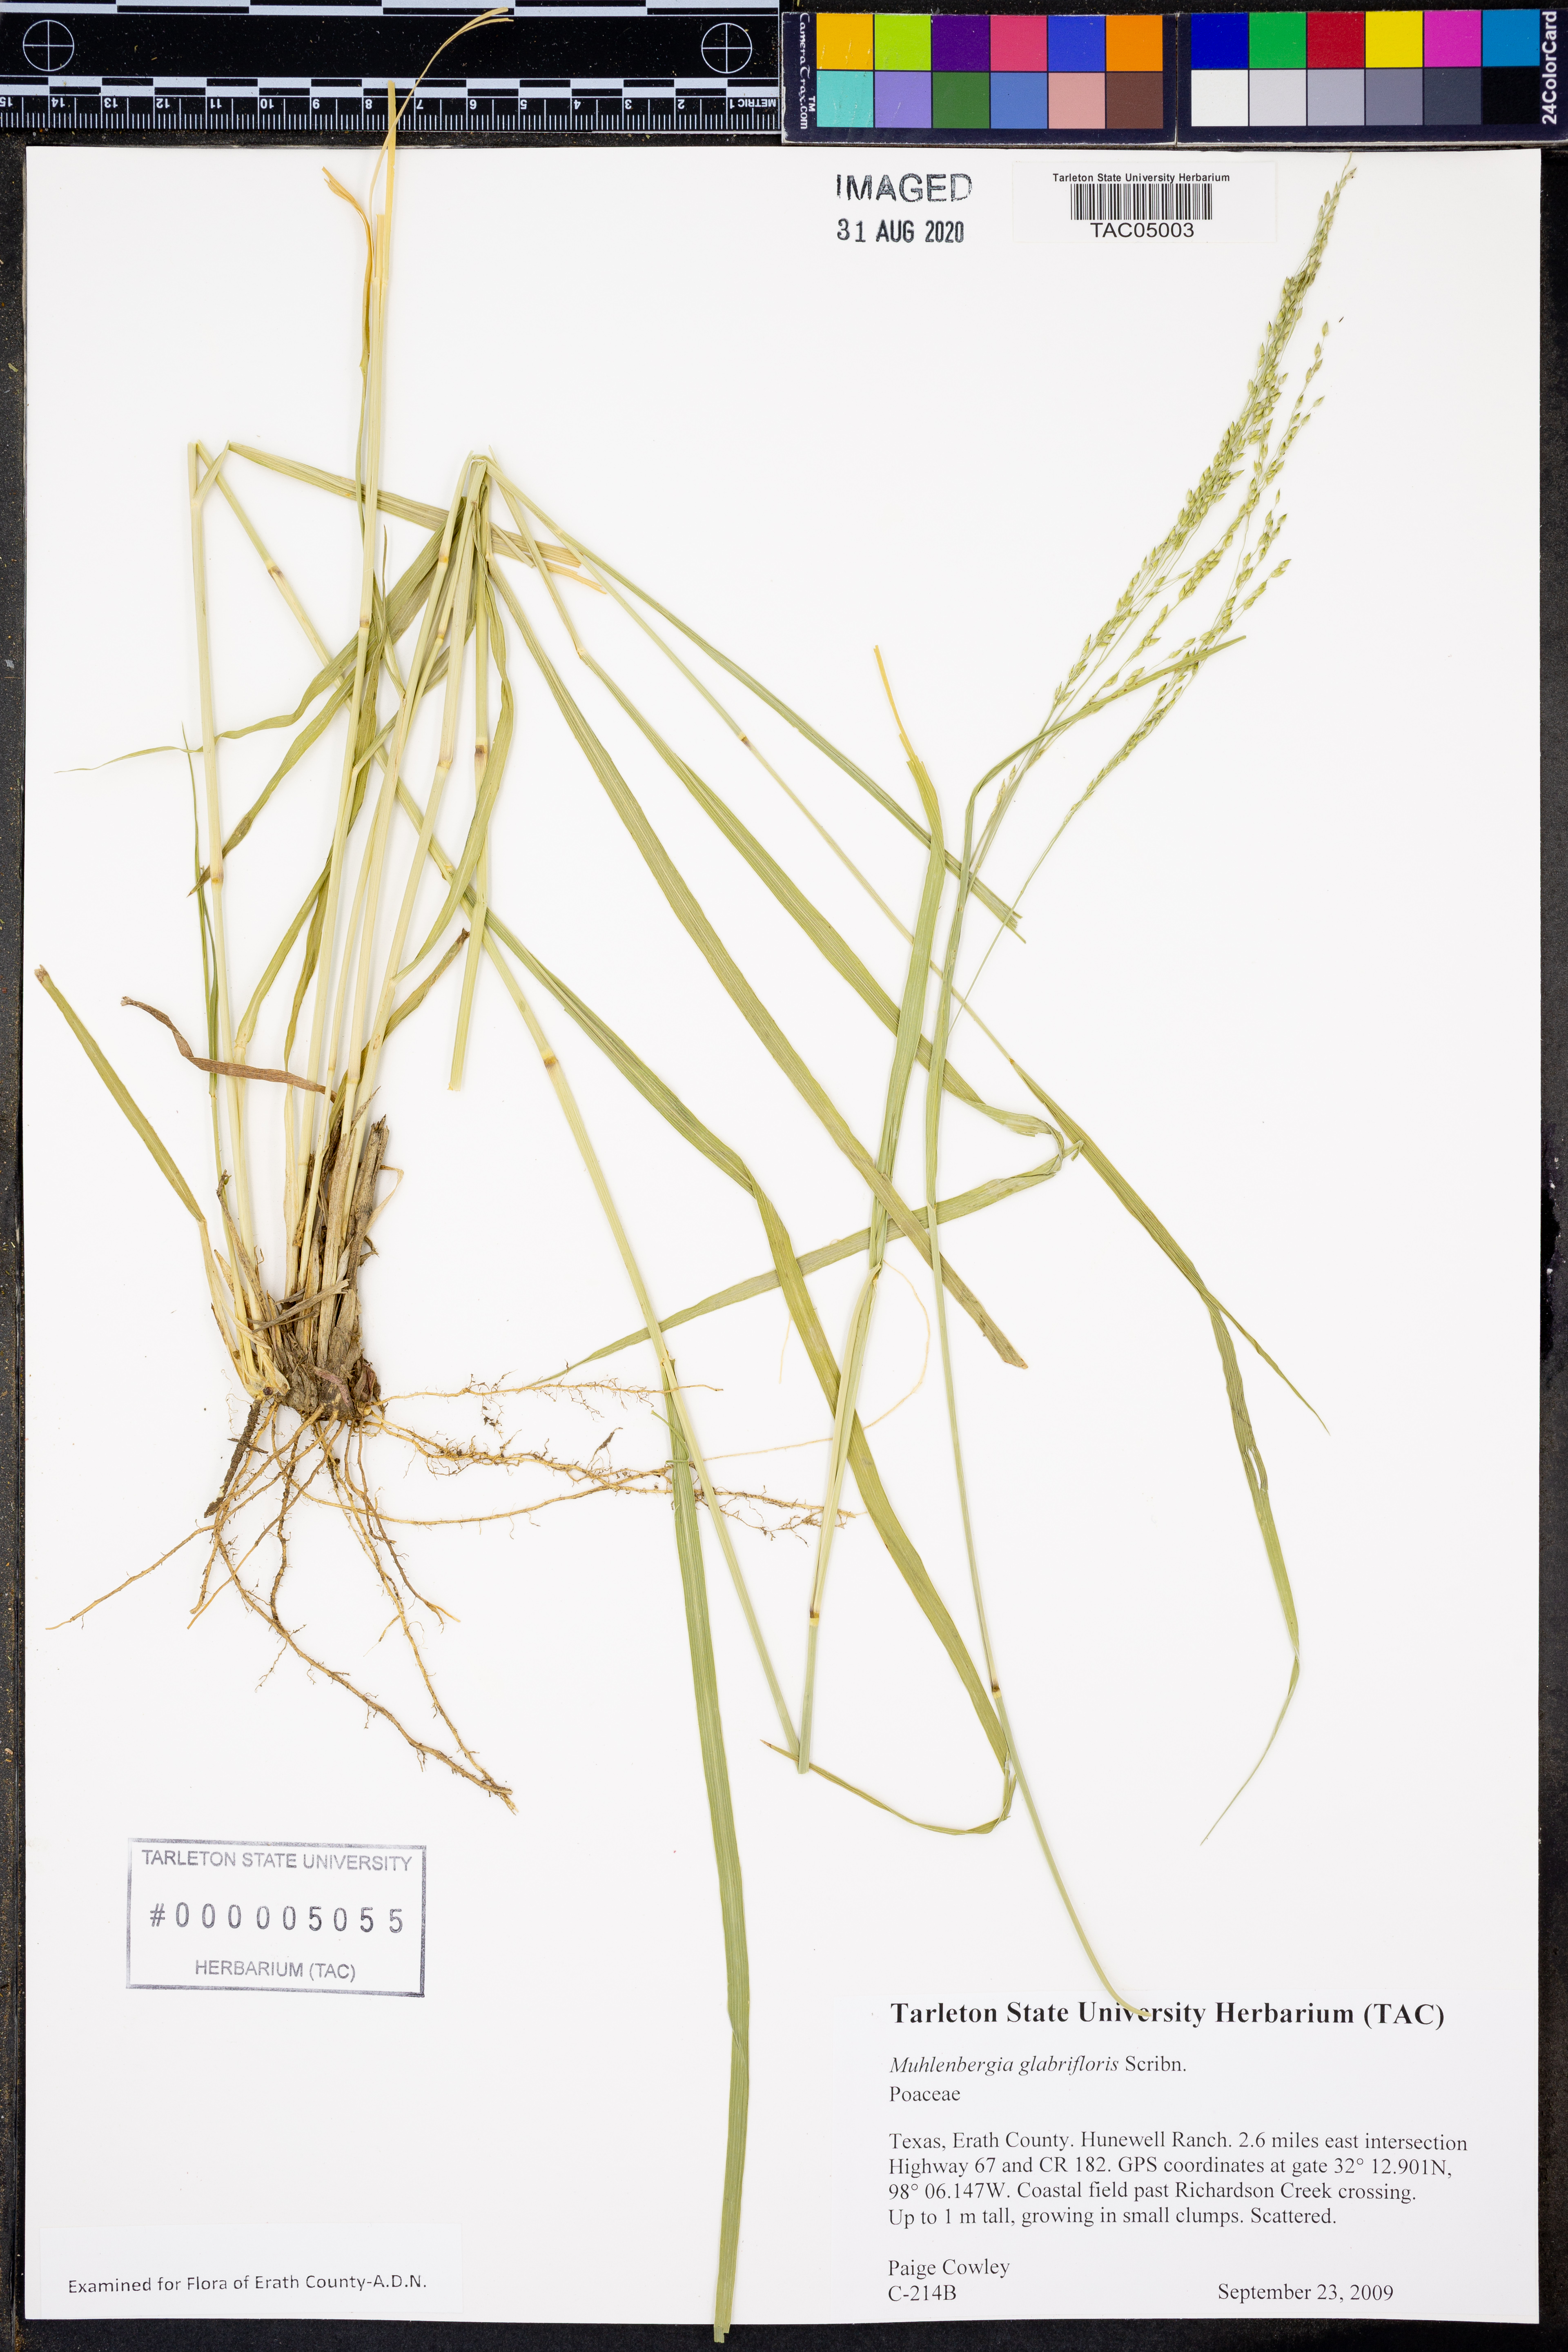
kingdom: Plantae
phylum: Tracheophyta
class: Liliopsida
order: Poales
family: Poaceae
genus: Muhlenbergia
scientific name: Muhlenbergia glabrifloris
